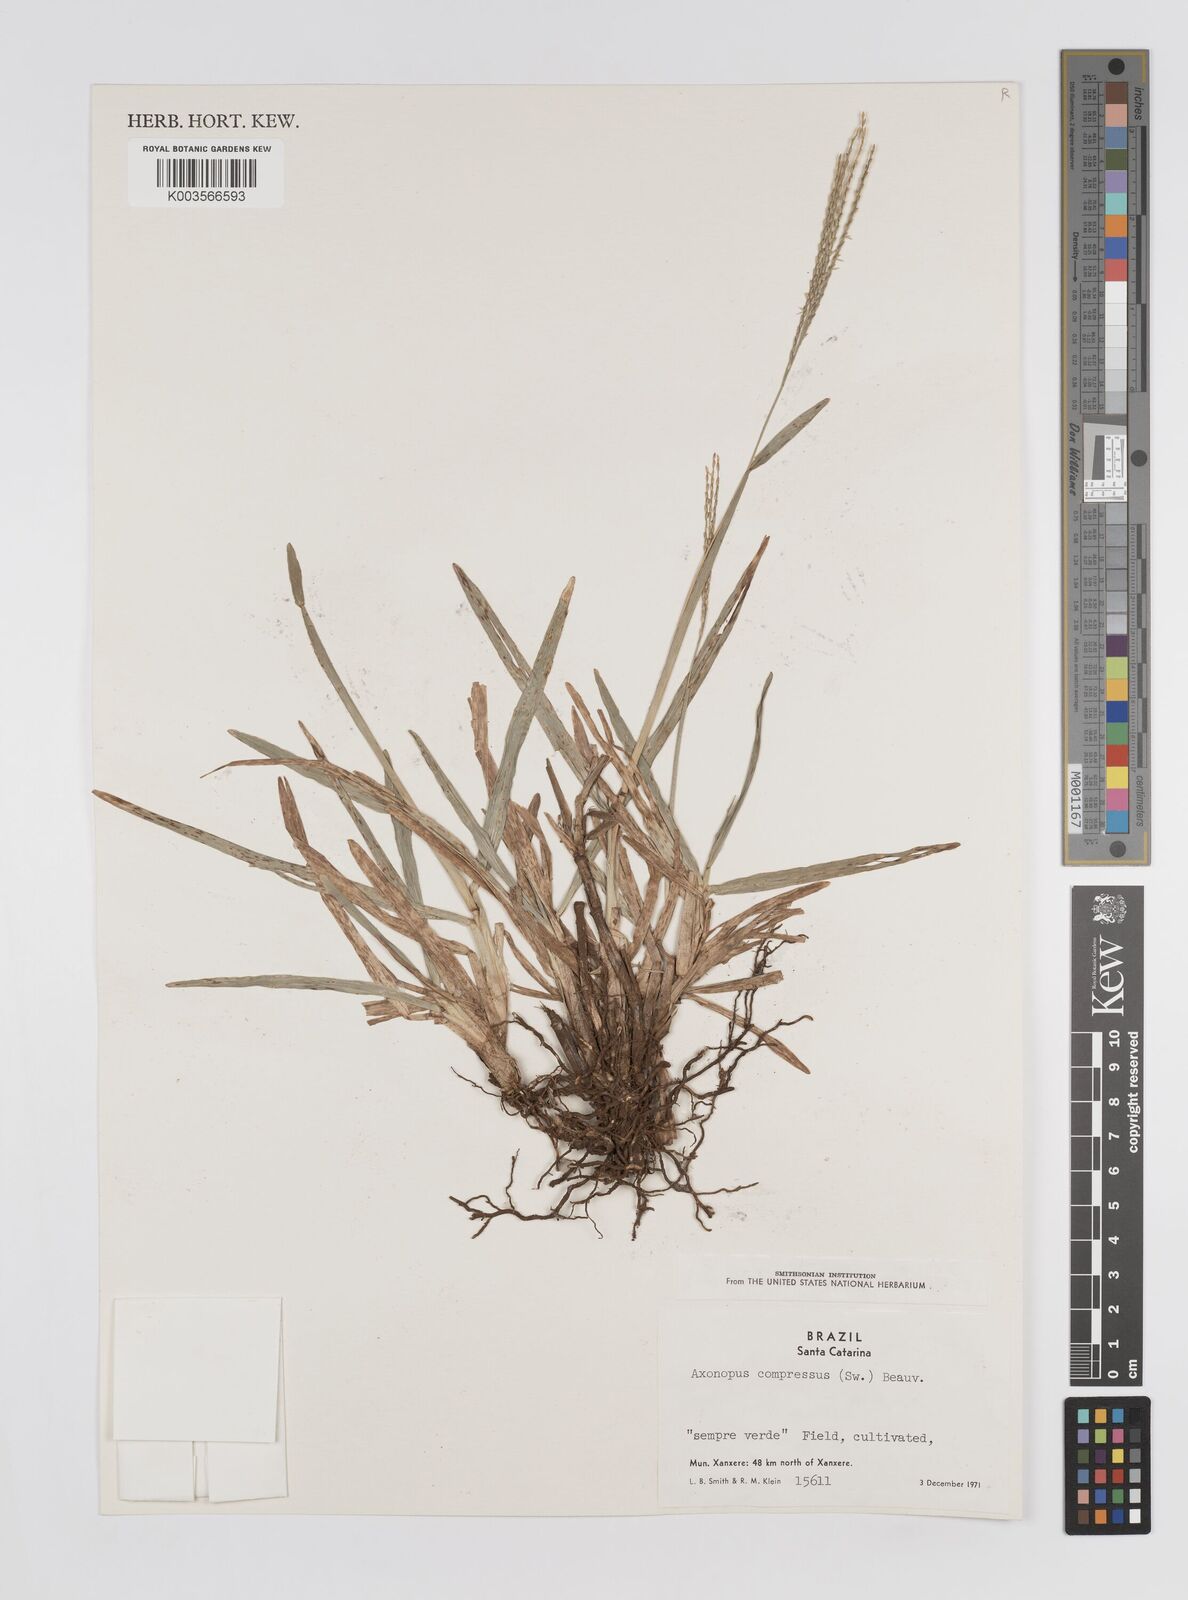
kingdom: Plantae
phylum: Tracheophyta
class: Liliopsida
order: Poales
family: Poaceae
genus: Axonopus
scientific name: Axonopus compressus
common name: American carpet grass
